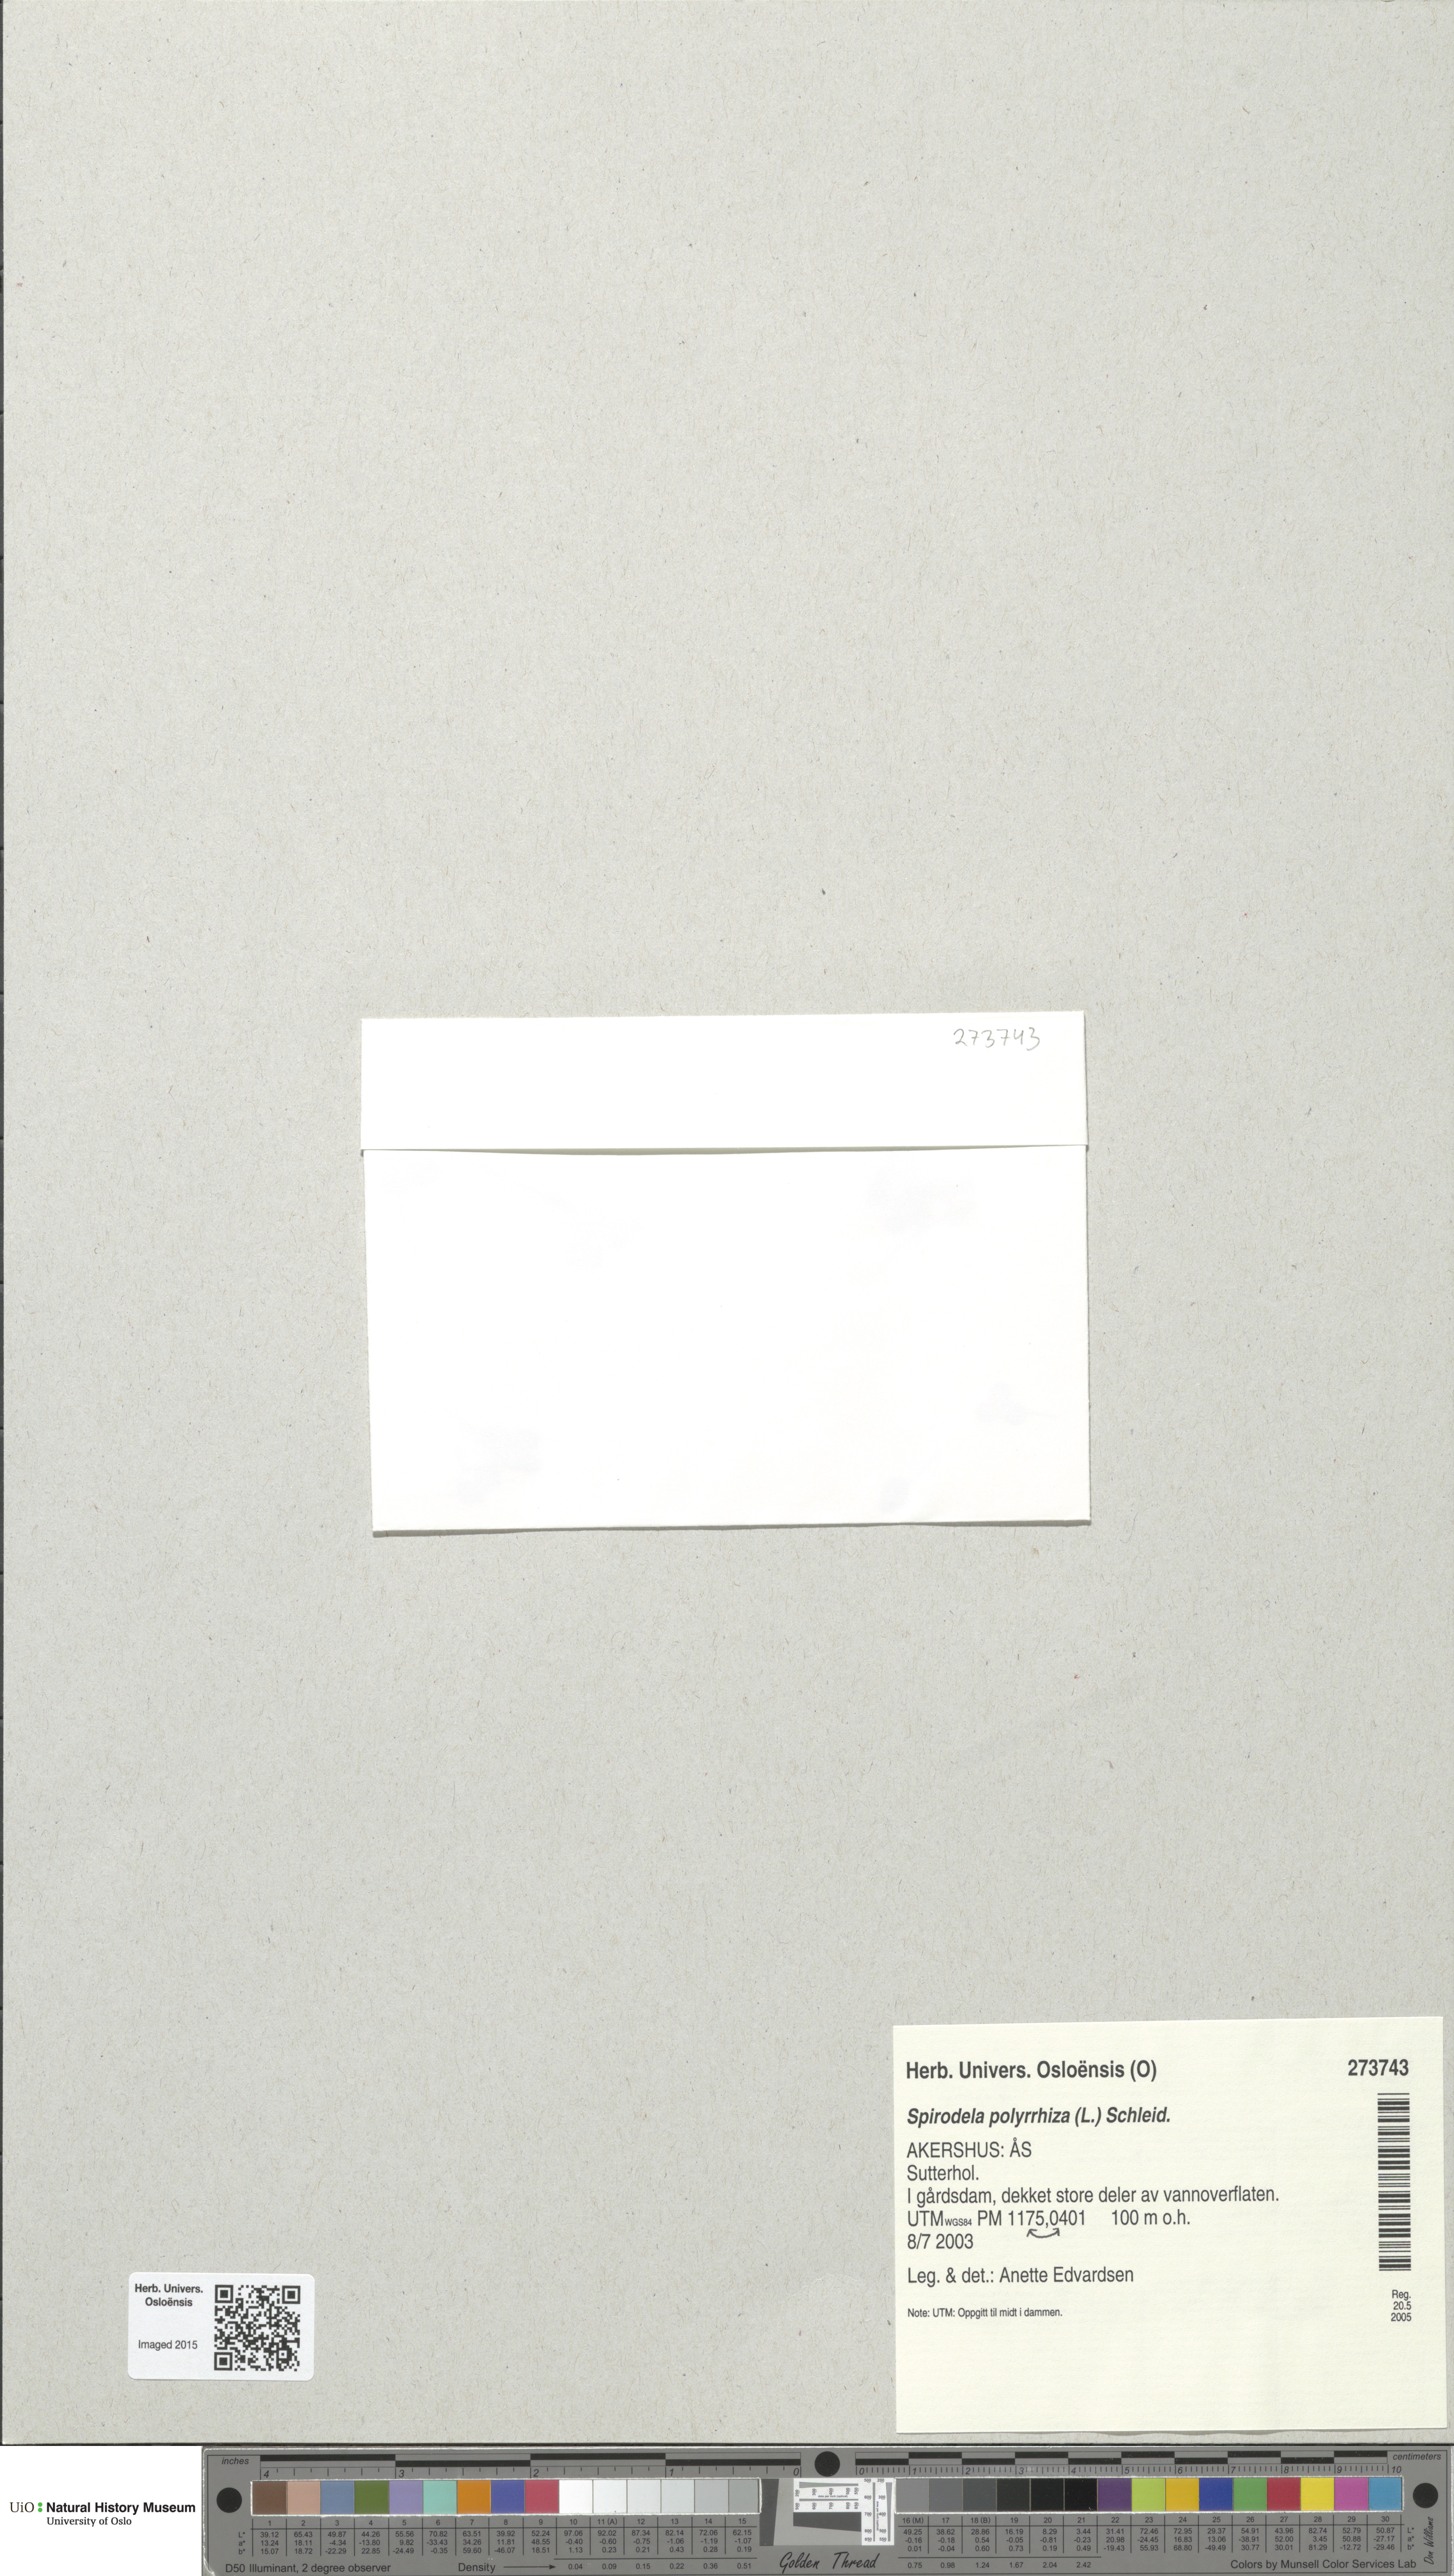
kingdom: Plantae
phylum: Tracheophyta
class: Liliopsida
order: Alismatales
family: Araceae
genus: Spirodela
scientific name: Spirodela polyrhiza
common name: Great duckweed
